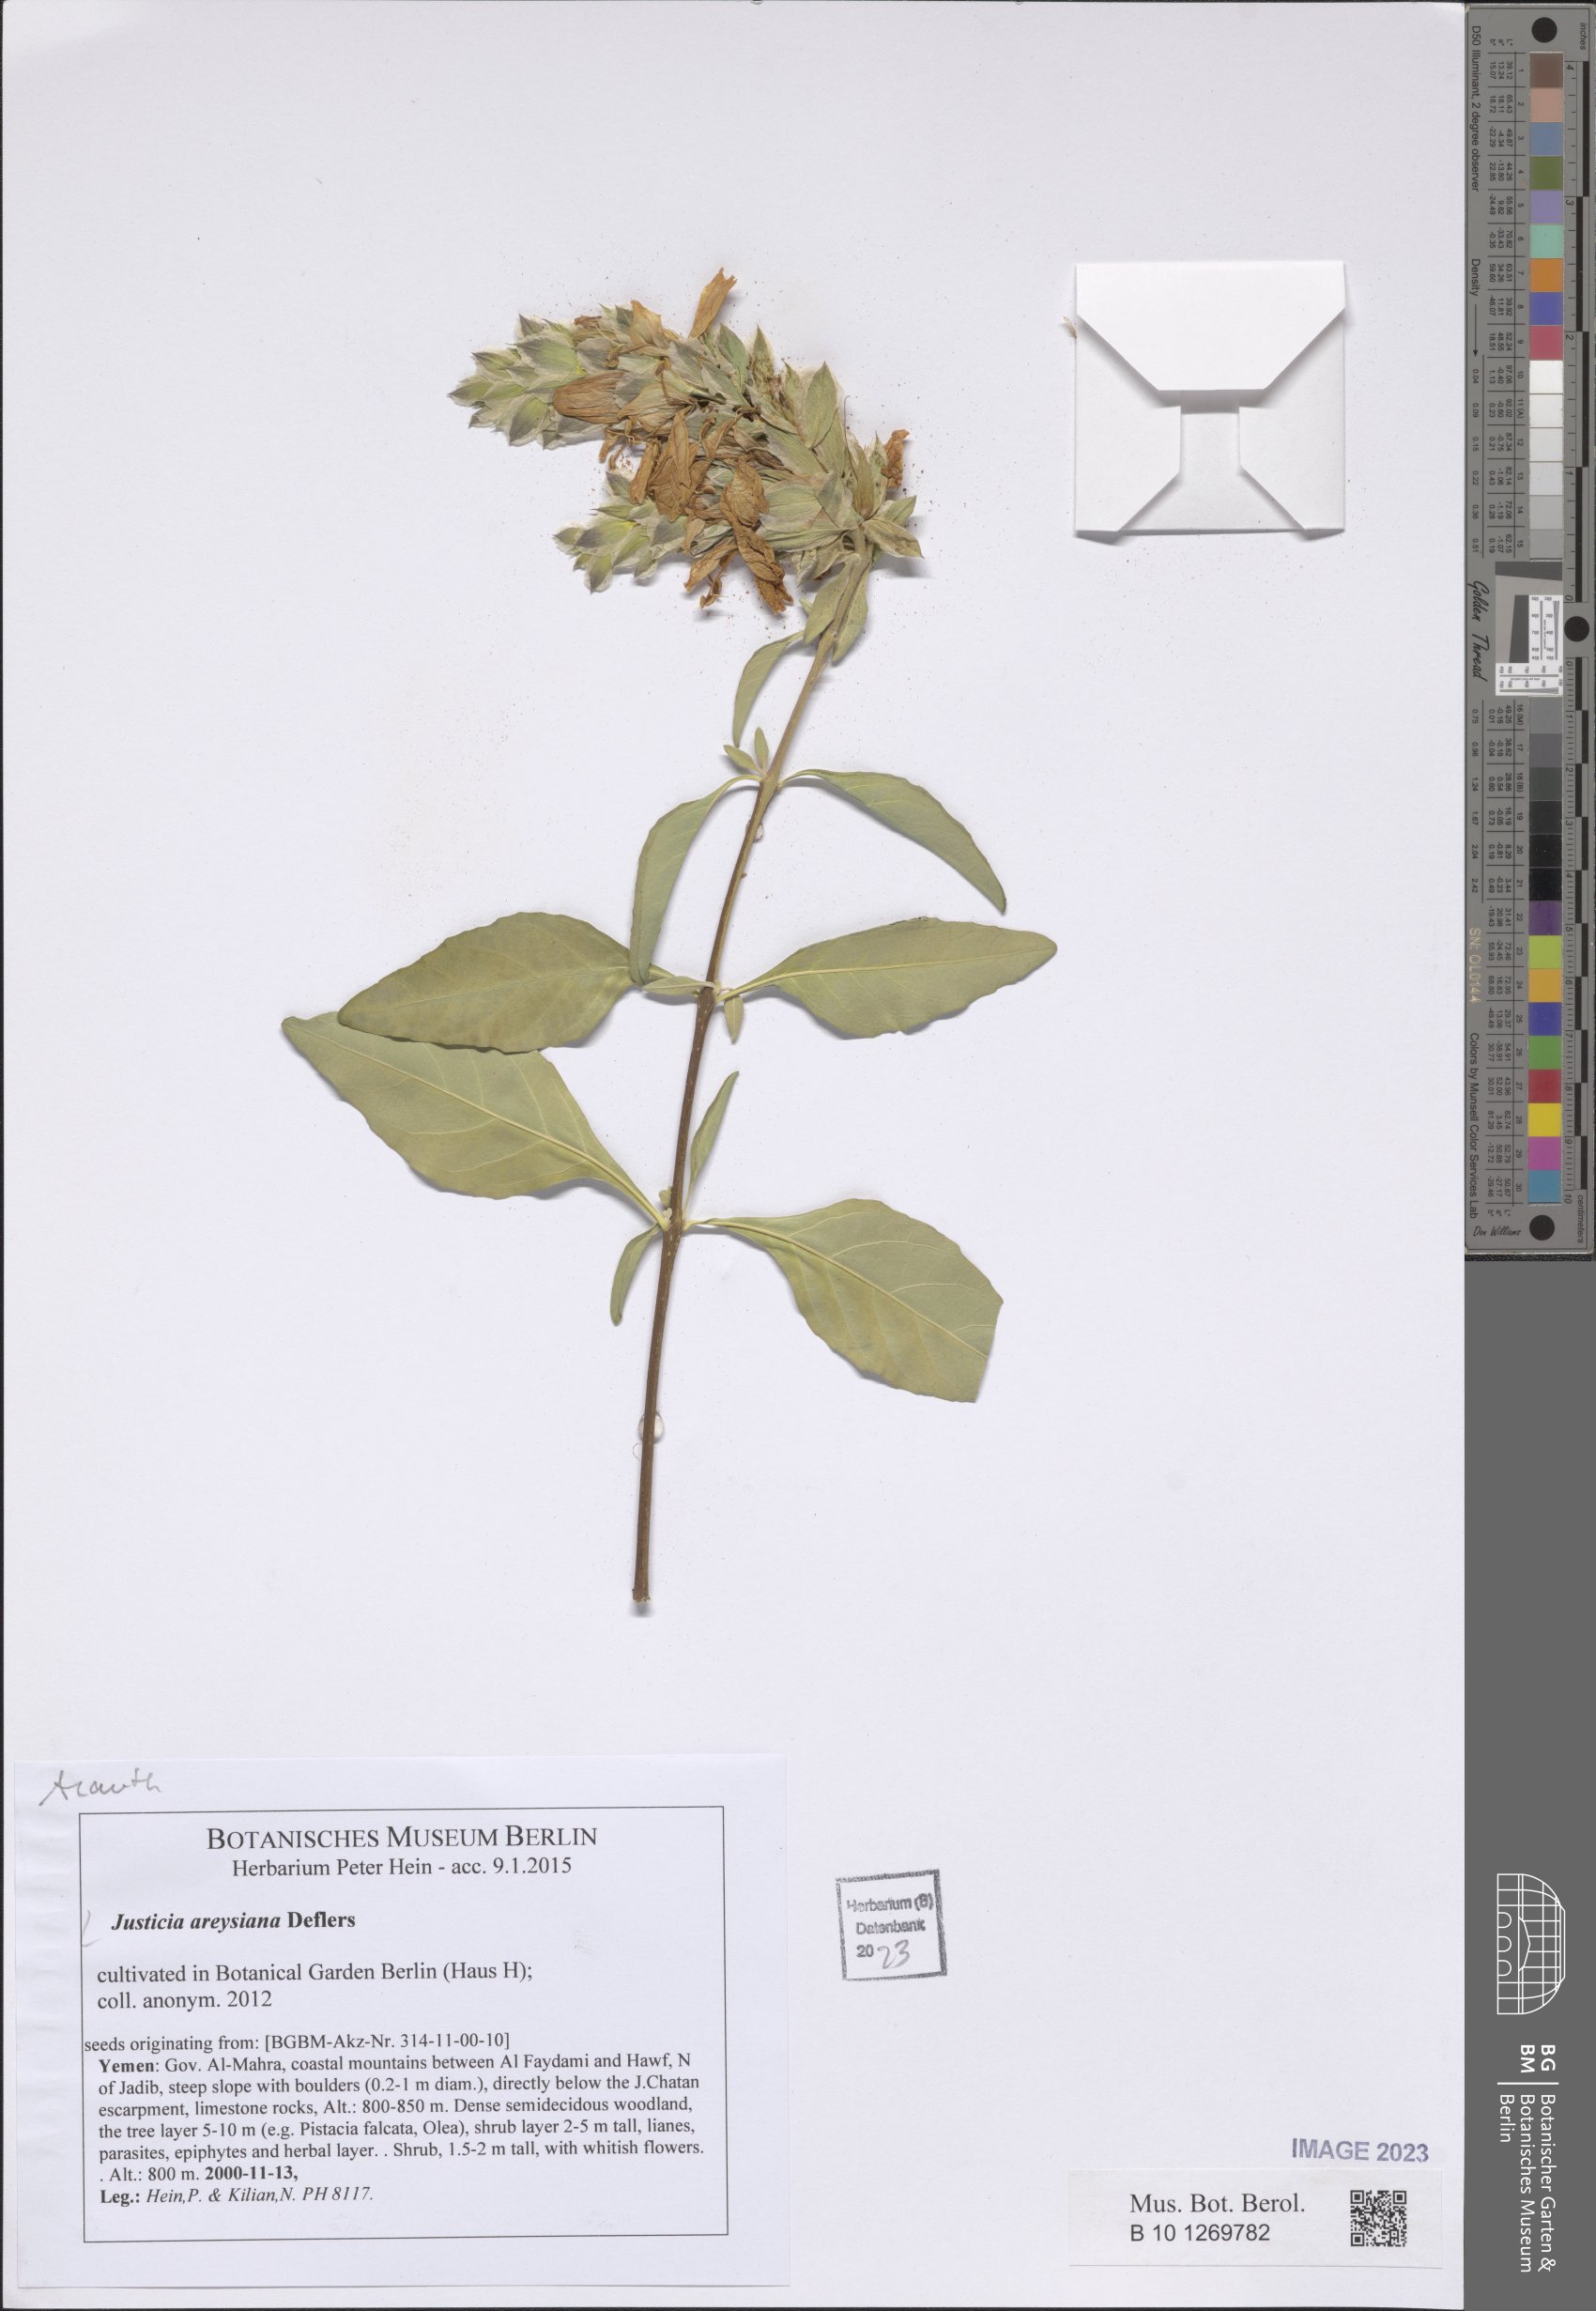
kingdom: Plantae
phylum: Tracheophyta
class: Magnoliopsida
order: Lamiales
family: Acanthaceae
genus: Justicia
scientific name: Justicia areysiana
